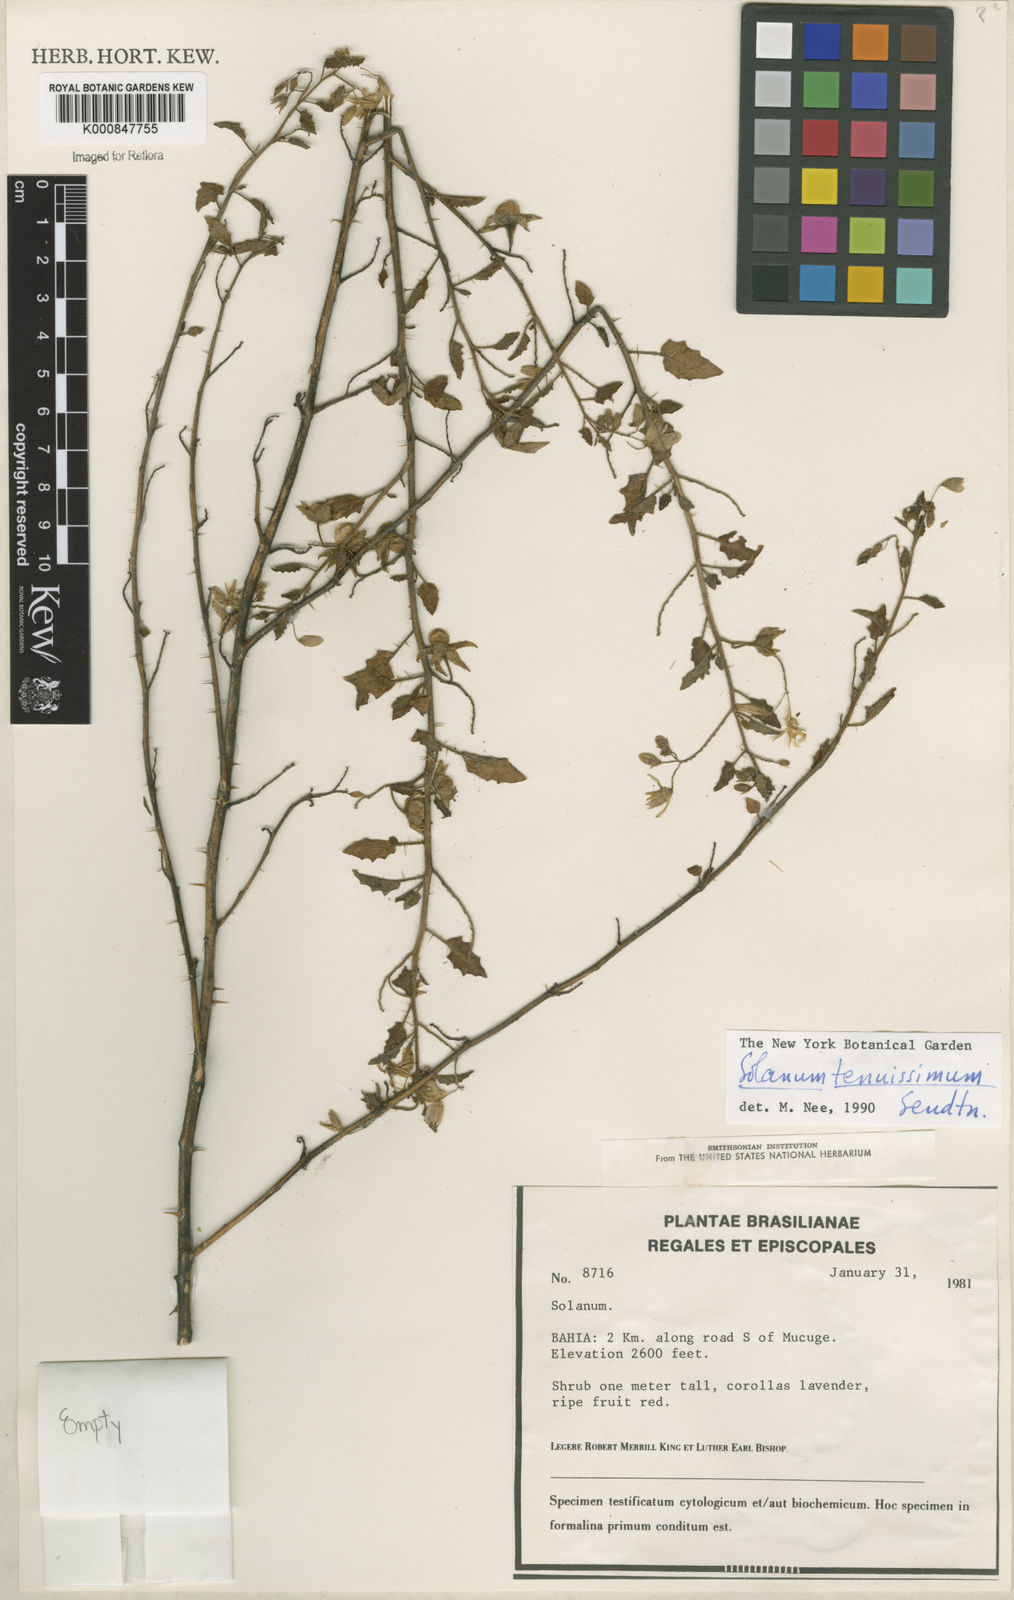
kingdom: Plantae
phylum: Tracheophyta
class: Magnoliopsida
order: Solanales
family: Solanaceae
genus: Solanum
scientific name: Solanum tenuissimum
